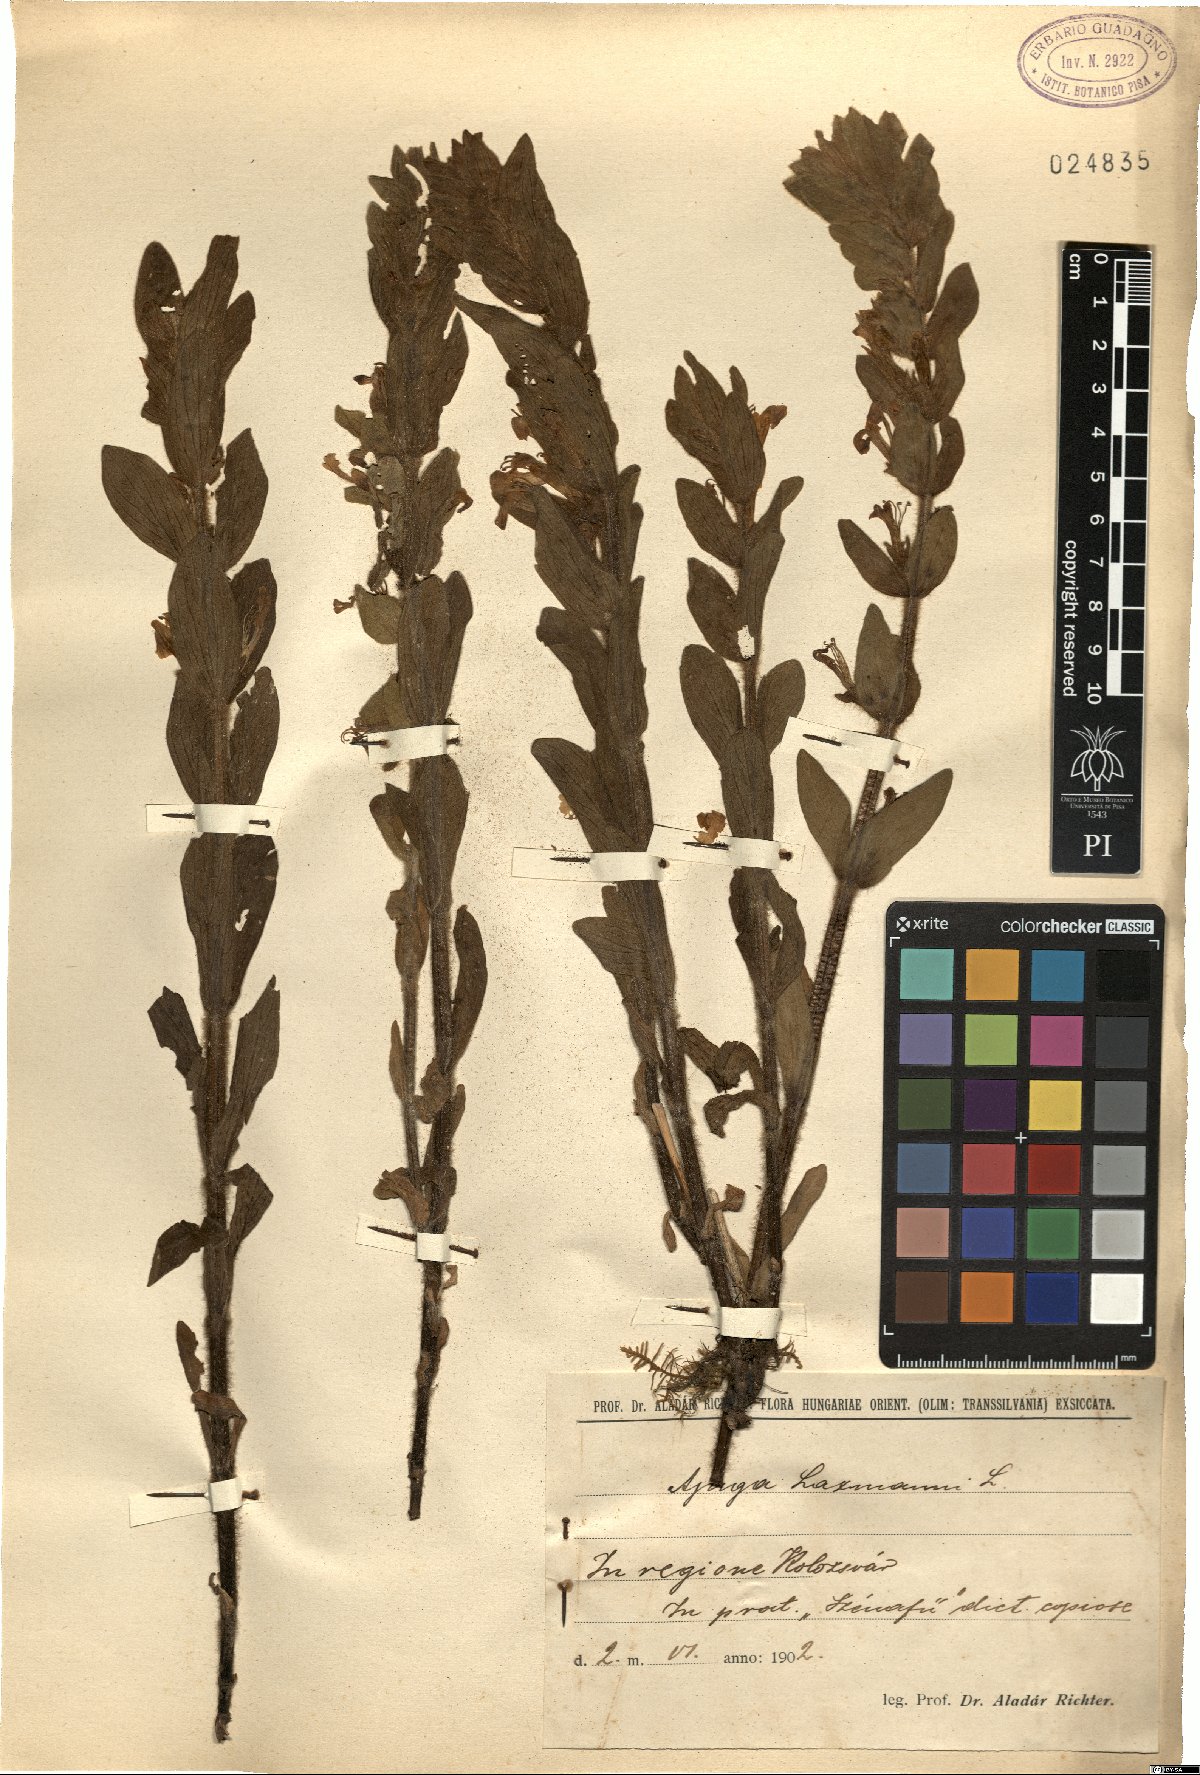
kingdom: Plantae
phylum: Tracheophyta
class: Magnoliopsida
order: Lamiales
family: Lamiaceae
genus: Ajuga
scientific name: Ajuga laxmannii
